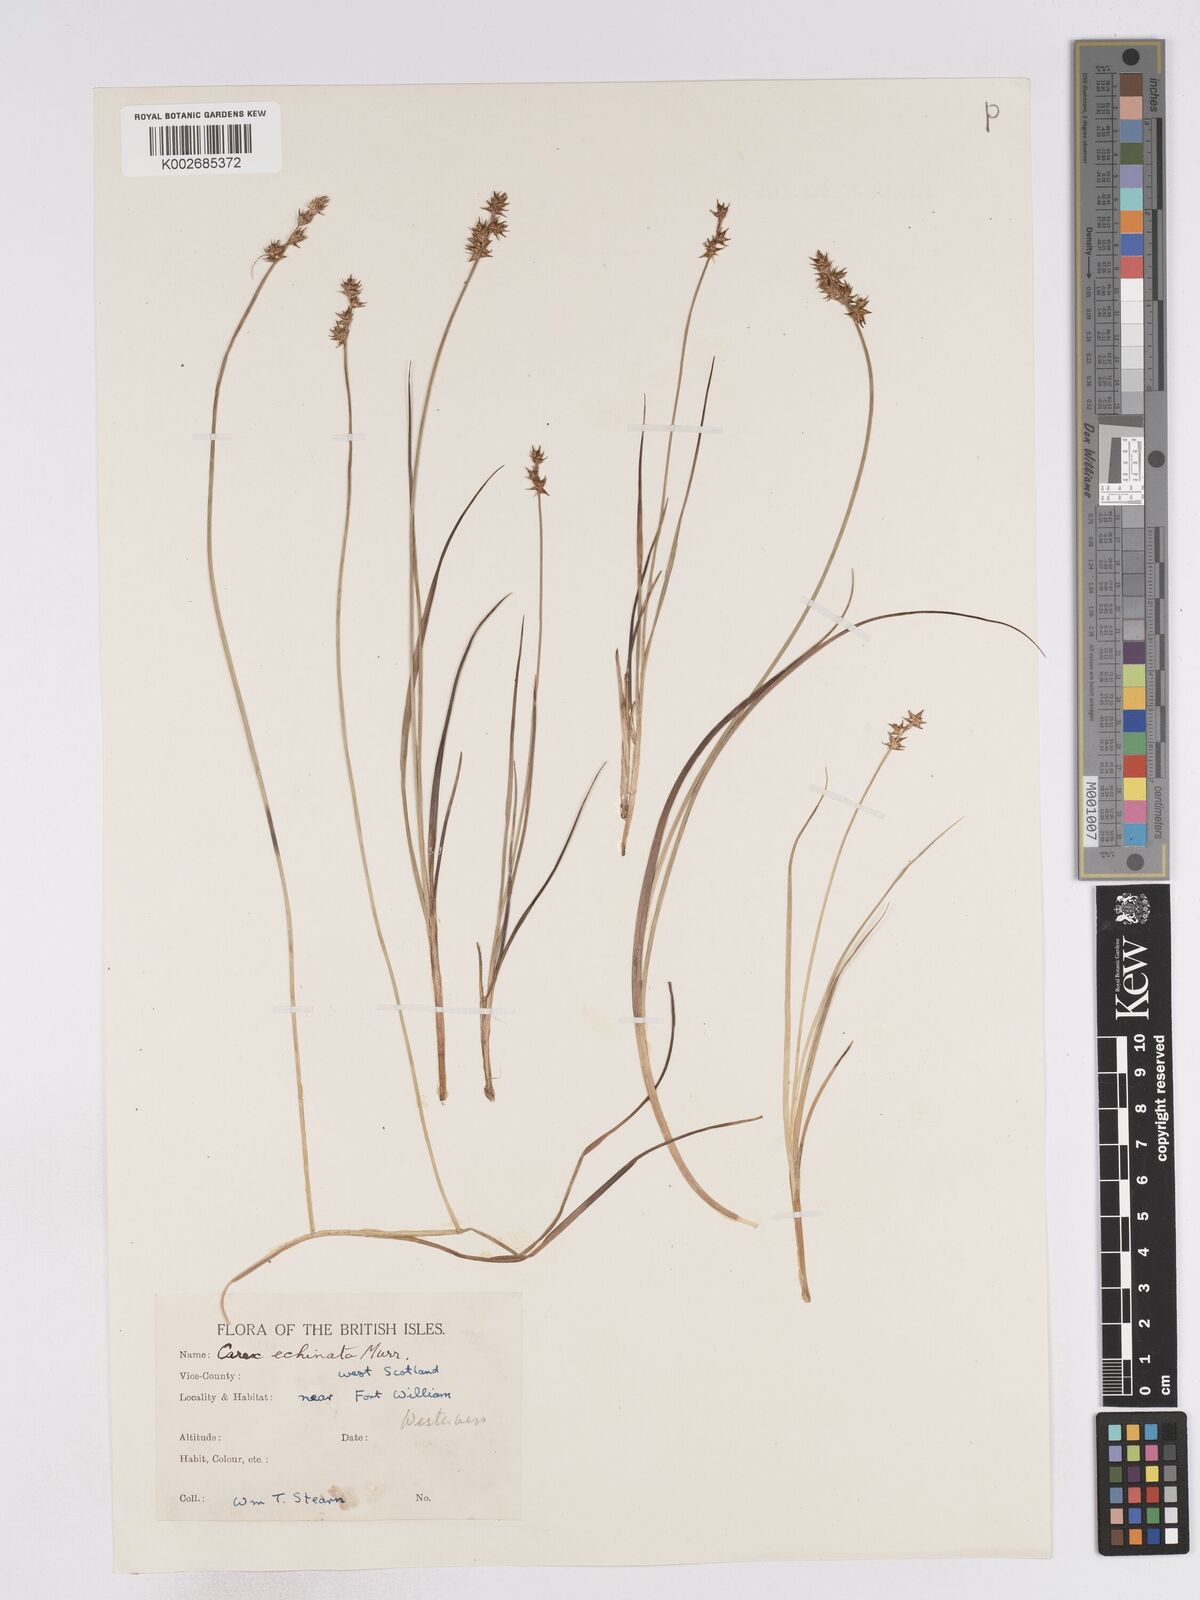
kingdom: Plantae
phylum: Tracheophyta
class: Liliopsida
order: Poales
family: Cyperaceae
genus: Carex
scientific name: Carex echinata
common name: Star sedge
